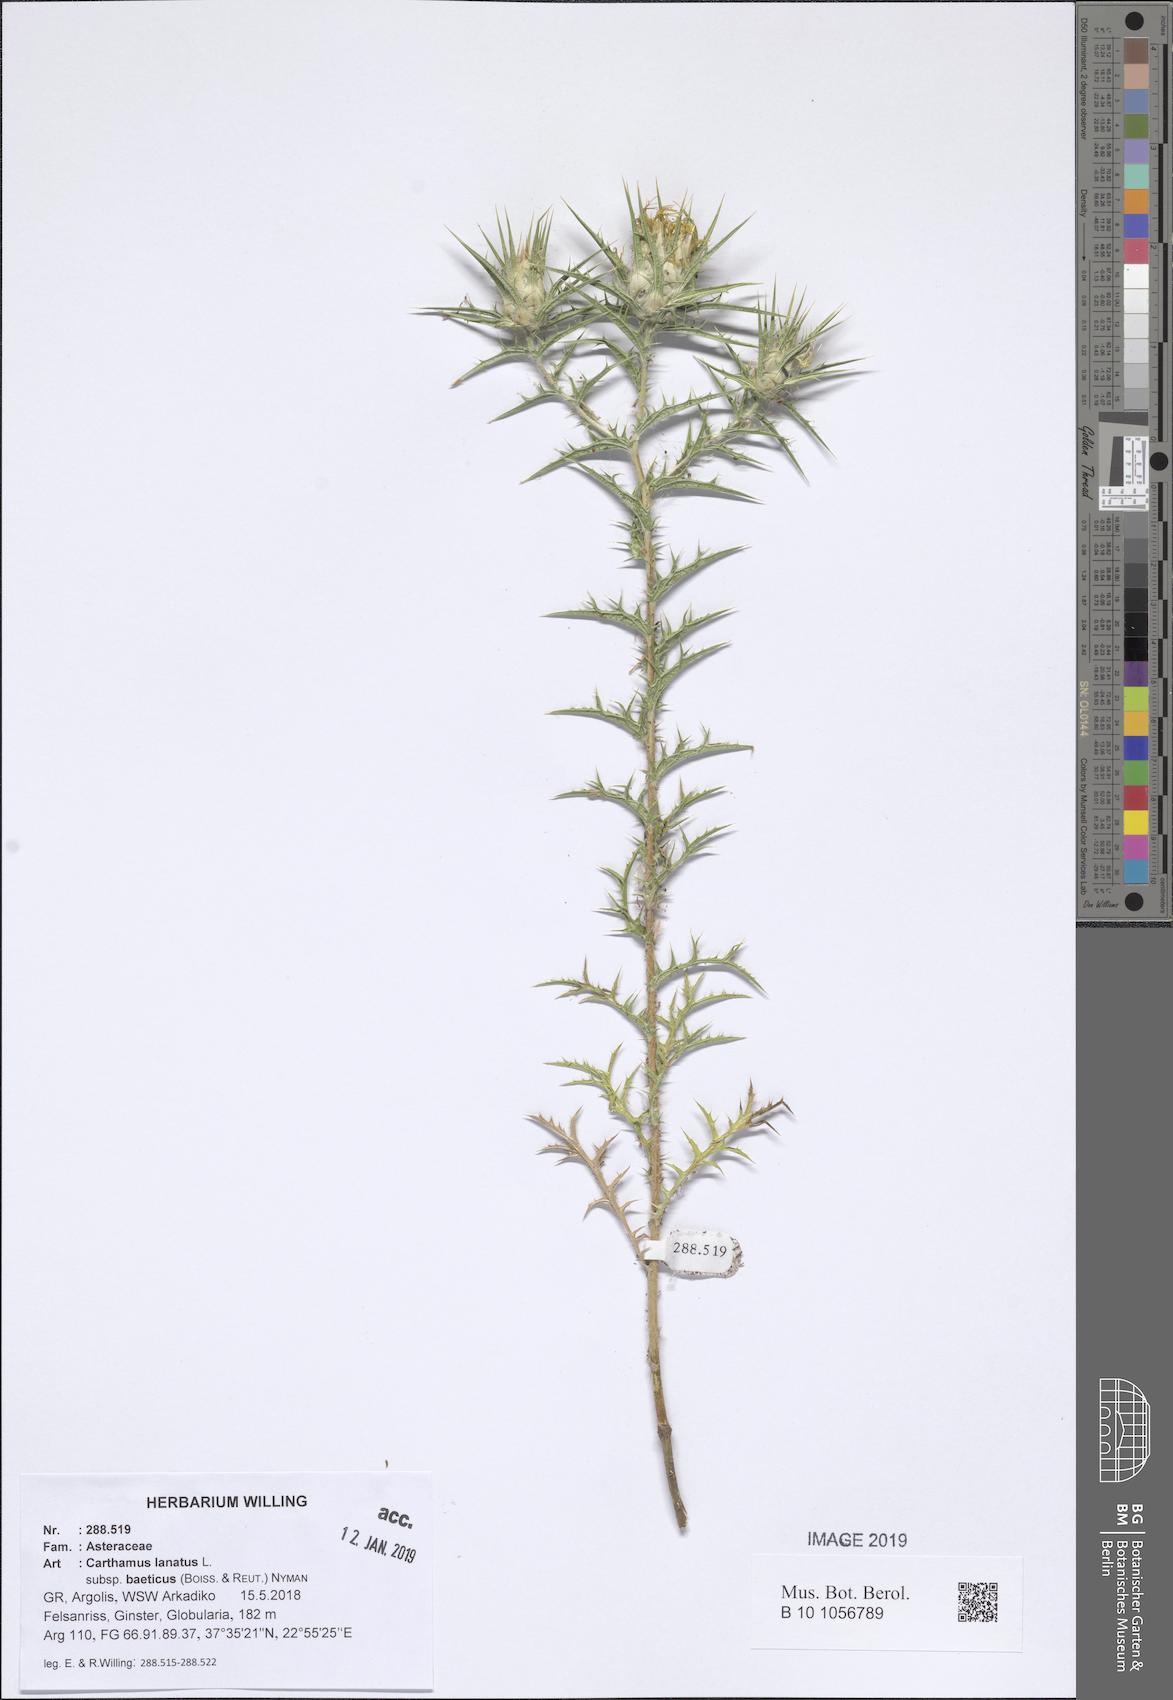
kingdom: Plantae
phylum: Tracheophyta
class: Magnoliopsida
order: Asterales
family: Asteraceae
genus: Carthamus
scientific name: Carthamus creticus
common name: Smooth distaff thistle
